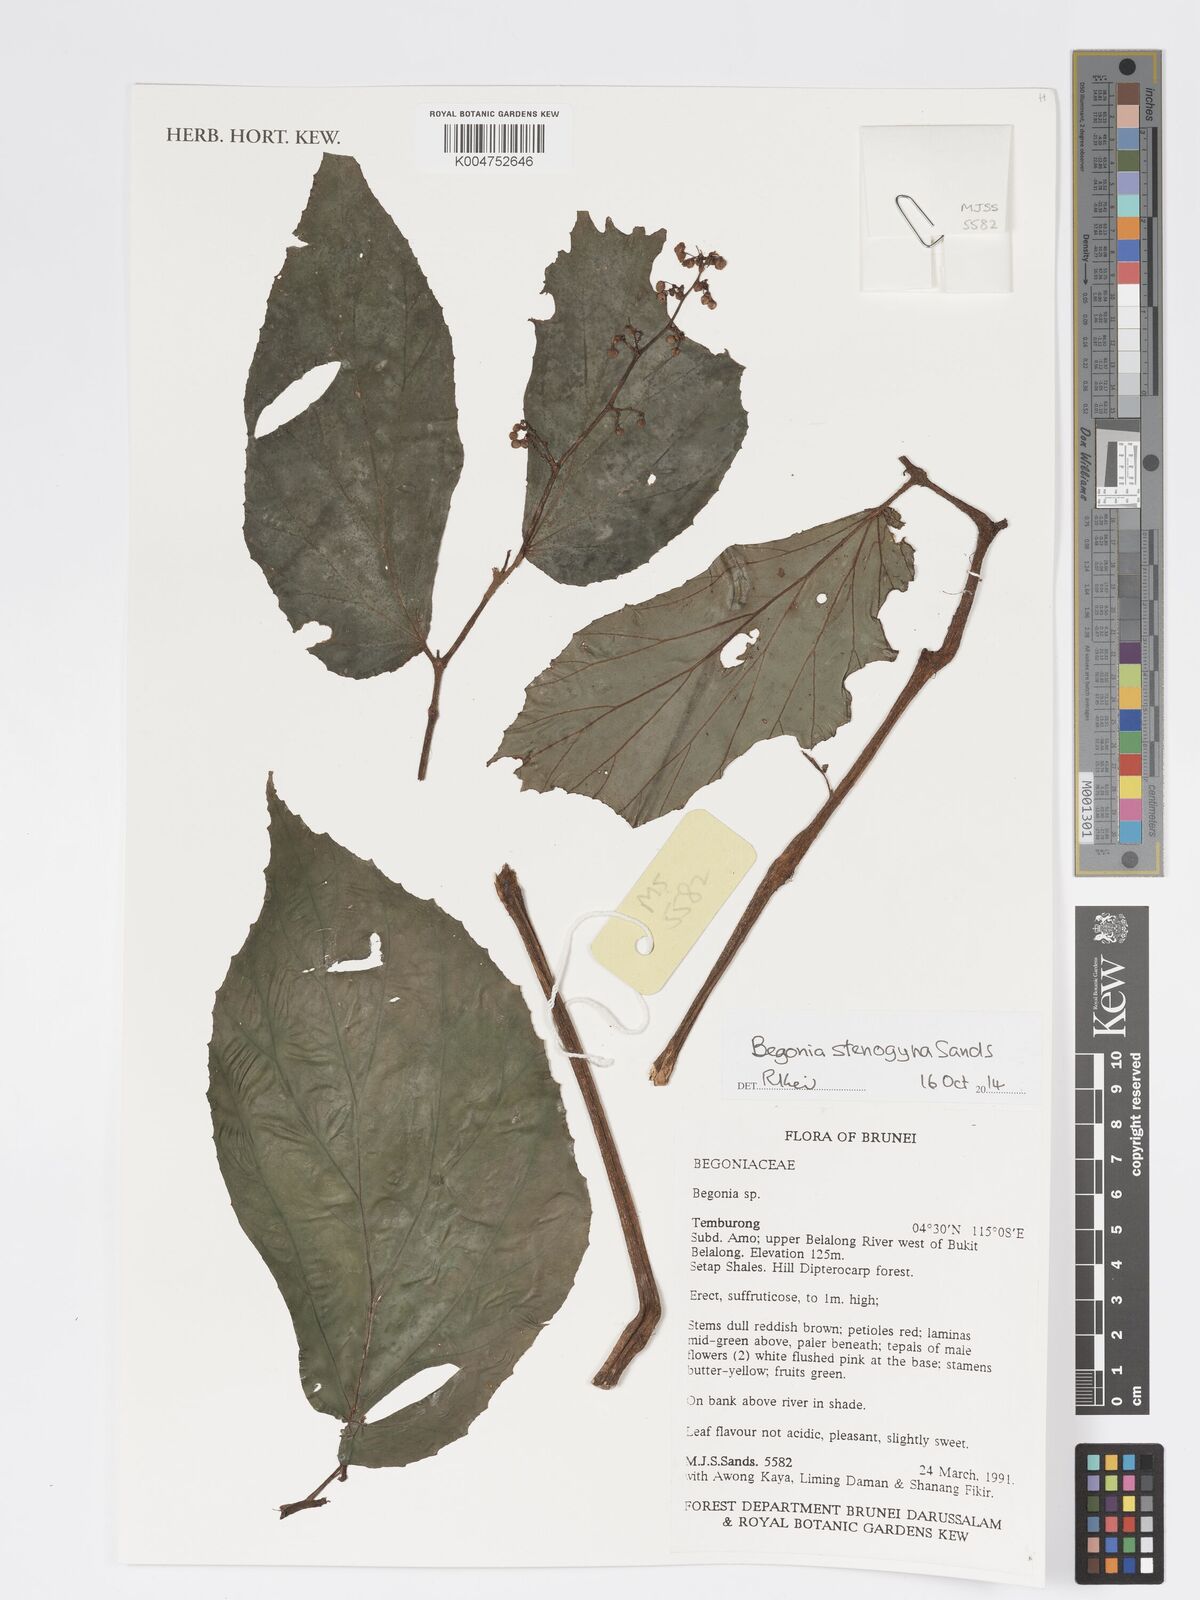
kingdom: Plantae
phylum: Tracheophyta
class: Magnoliopsida
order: Cucurbitales
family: Begoniaceae
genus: Begonia
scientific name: Begonia stenogyna
